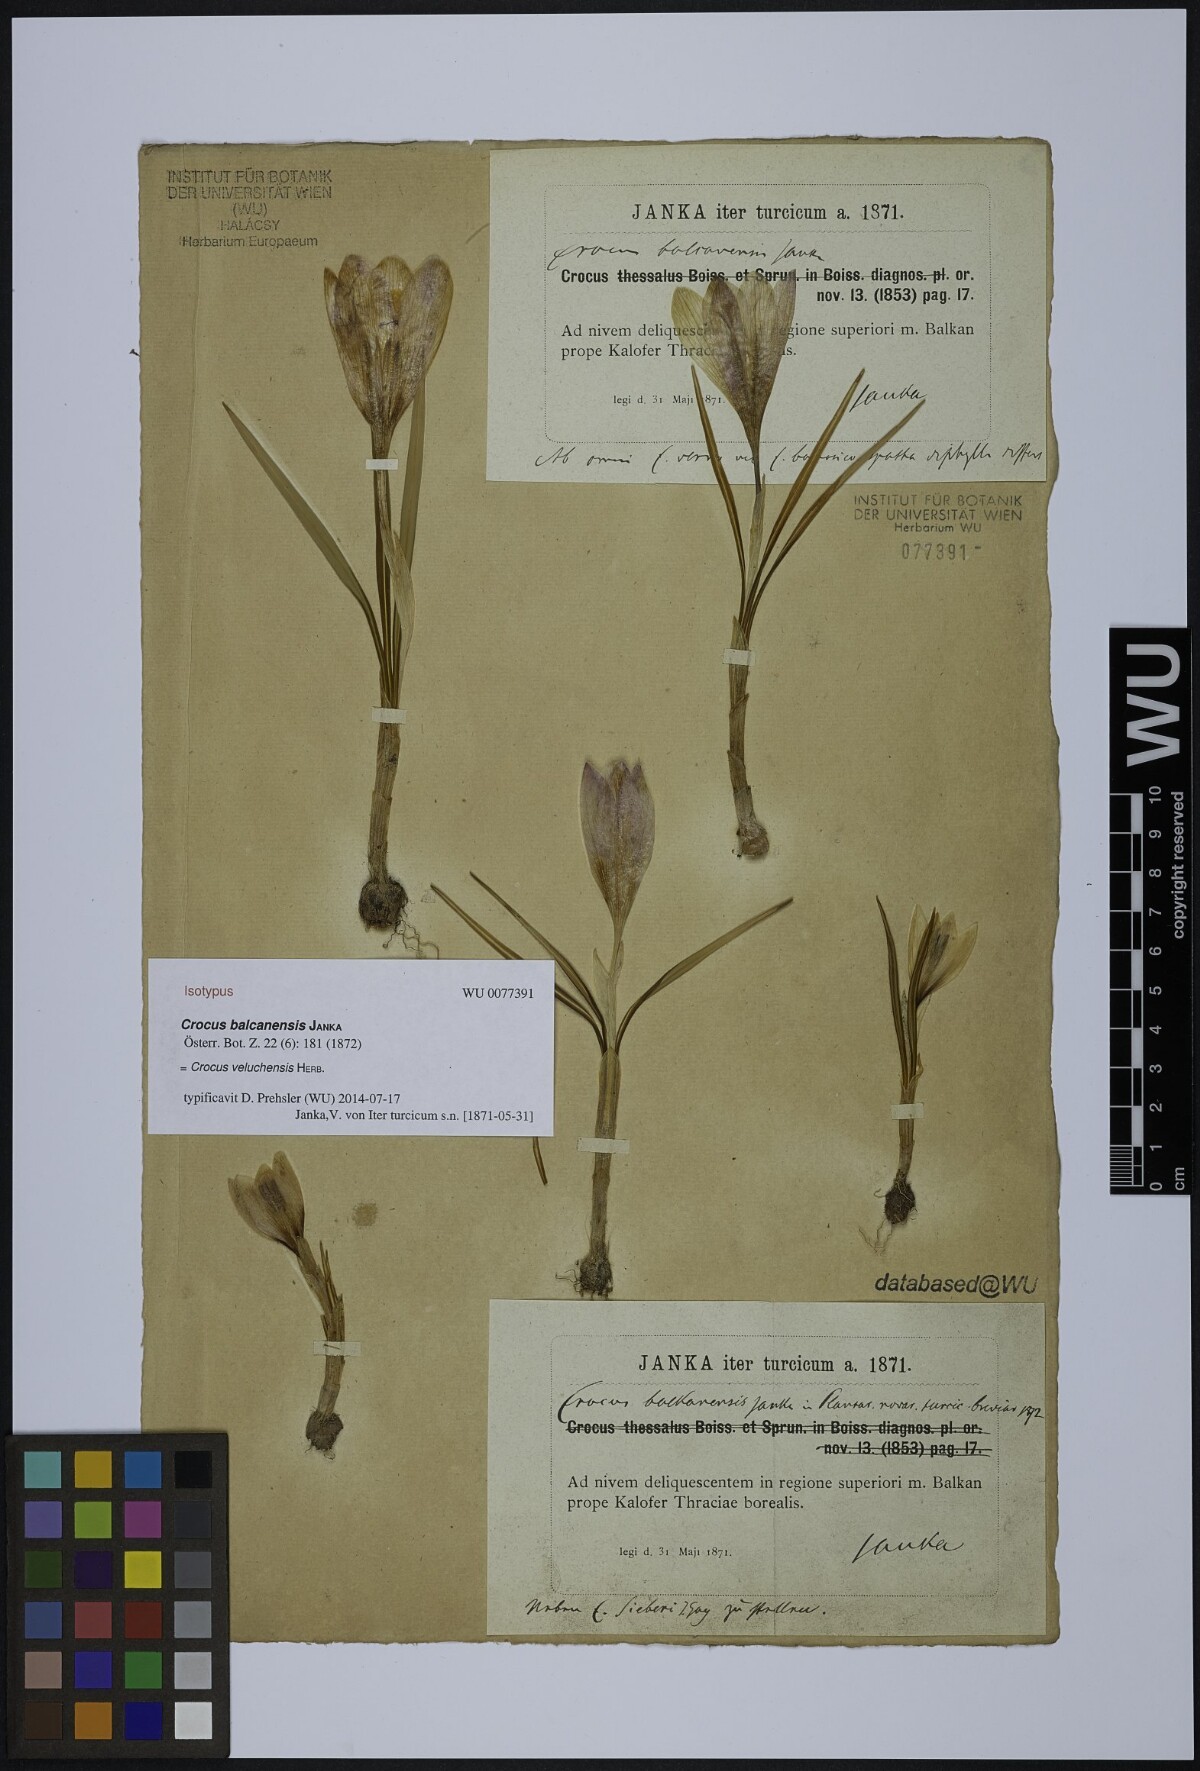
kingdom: Plantae
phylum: Tracheophyta
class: Liliopsida
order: Asparagales
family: Iridaceae
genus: Crocus
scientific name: Crocus veluchensis
